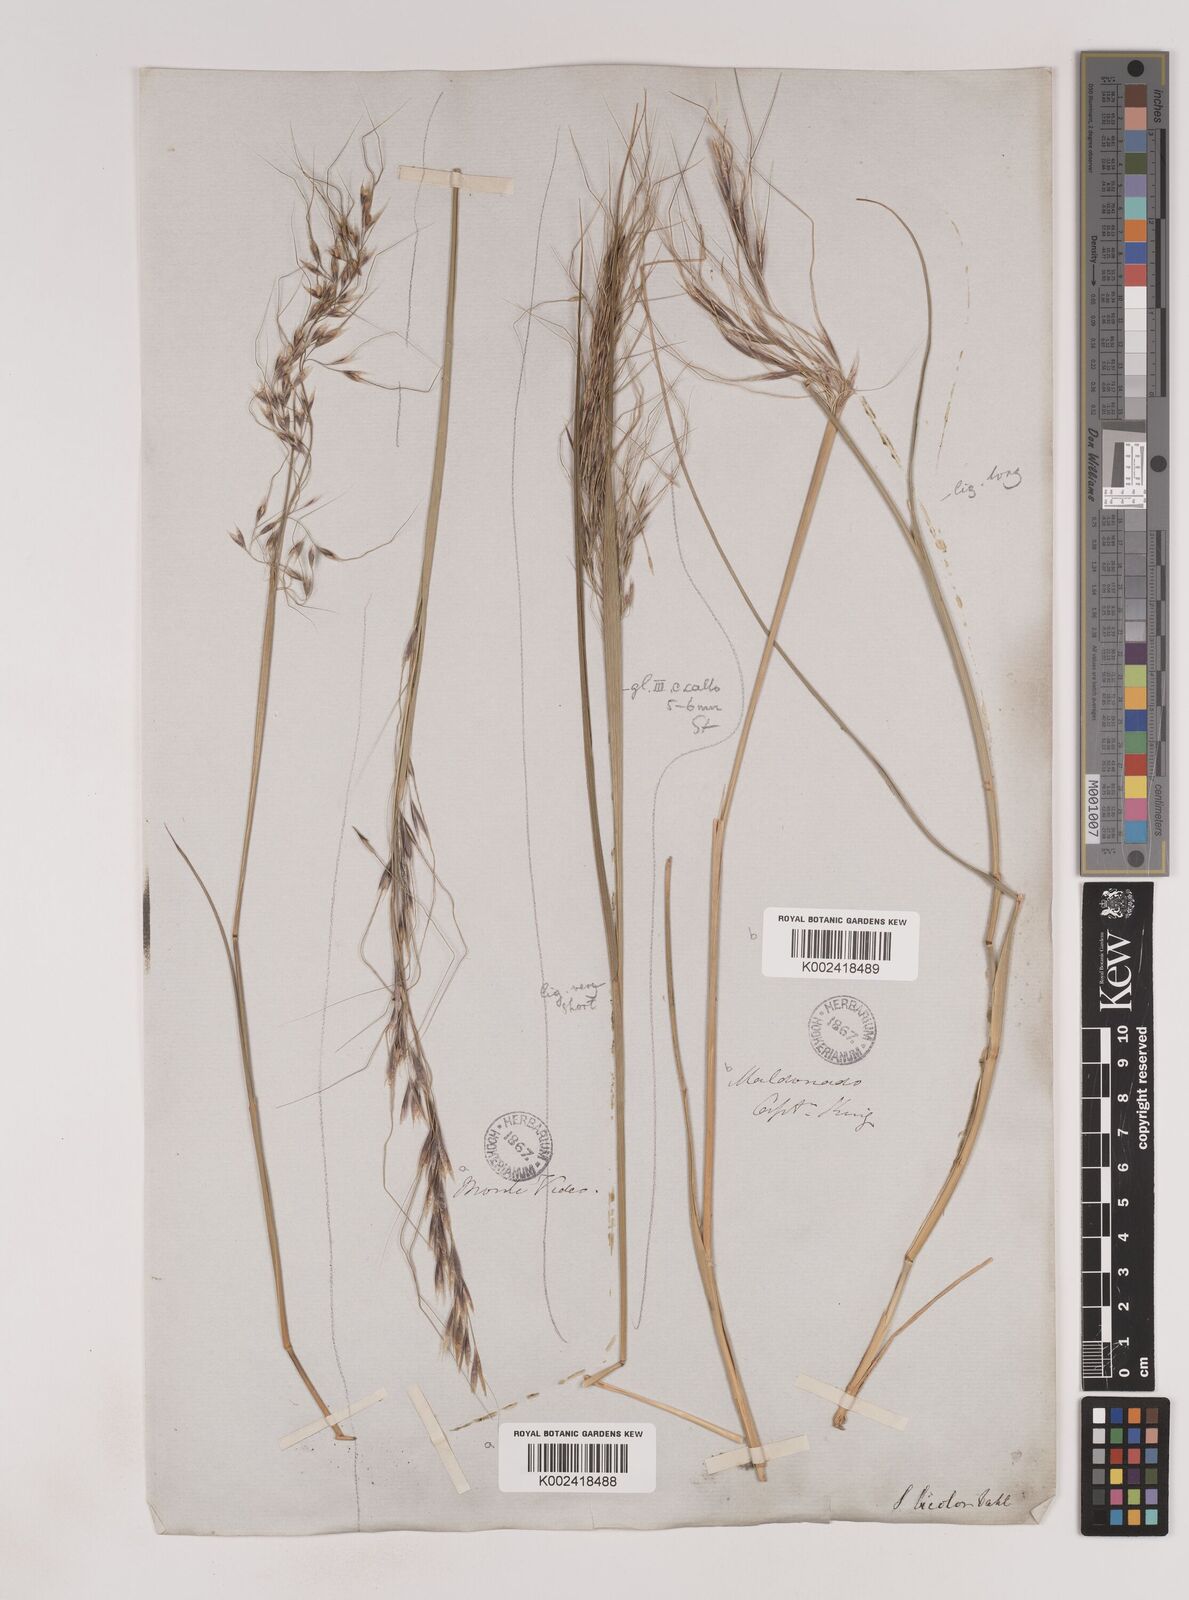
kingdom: Plantae
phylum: Tracheophyta
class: Liliopsida
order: Poales
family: Poaceae
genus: Piptochaetium
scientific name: Piptochaetium bicolor
